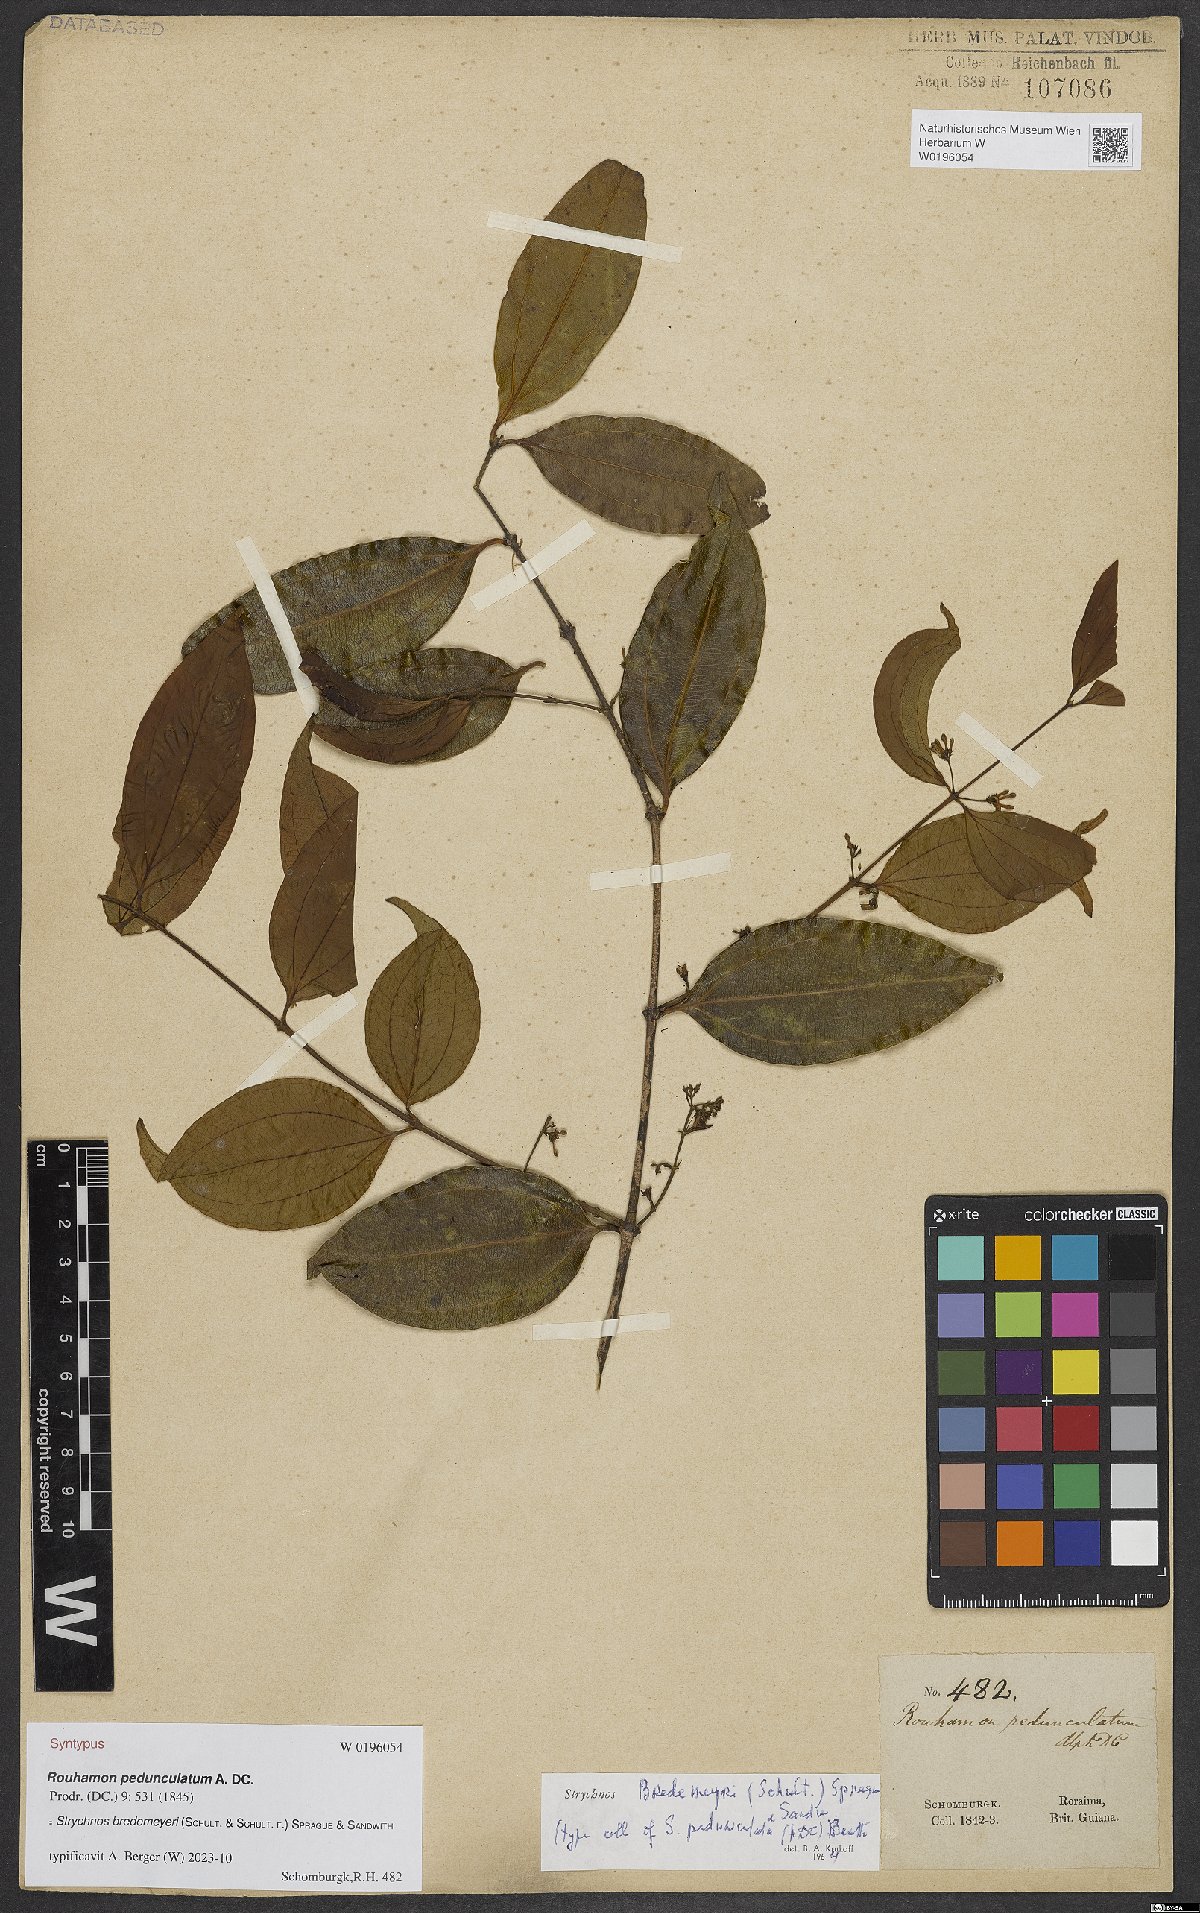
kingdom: Plantae
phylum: Tracheophyta
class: Magnoliopsida
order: Gentianales
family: Loganiaceae
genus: Strychnos
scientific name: Strychnos bredemeyeri
